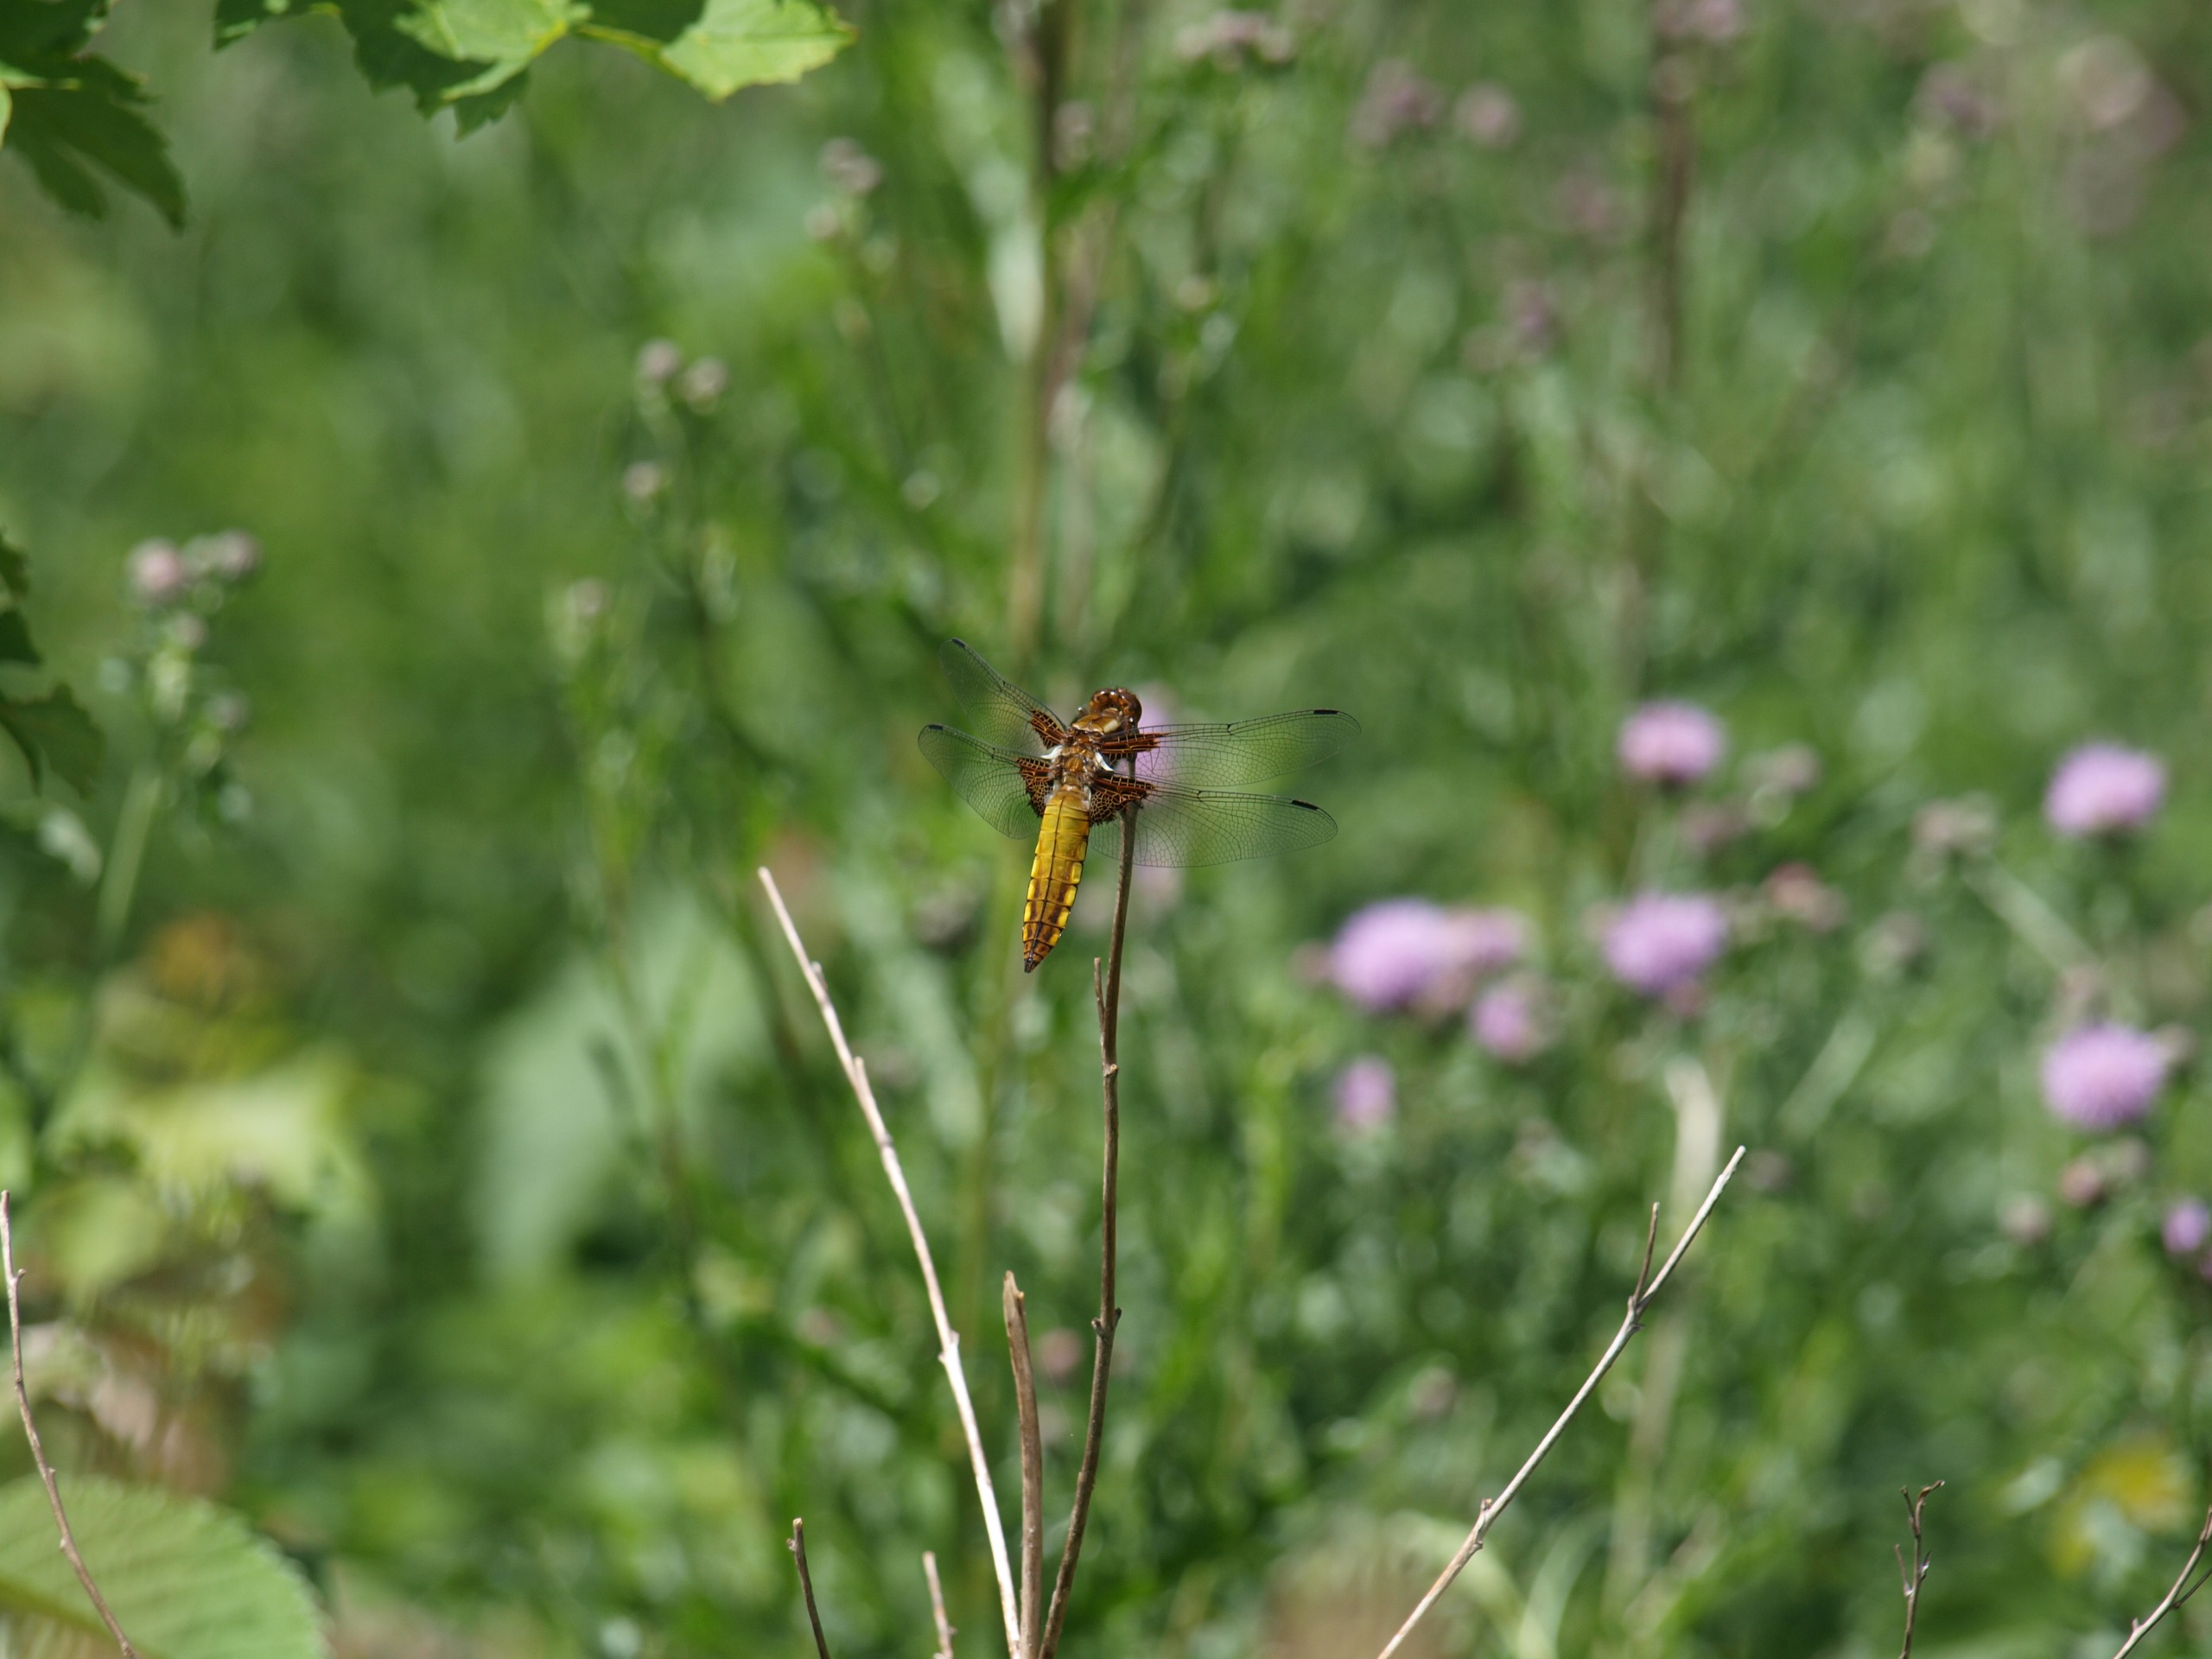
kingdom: Animalia
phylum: Arthropoda
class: Insecta
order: Odonata
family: Libellulidae
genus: Libellula
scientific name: Libellula depressa
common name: Blå libel
